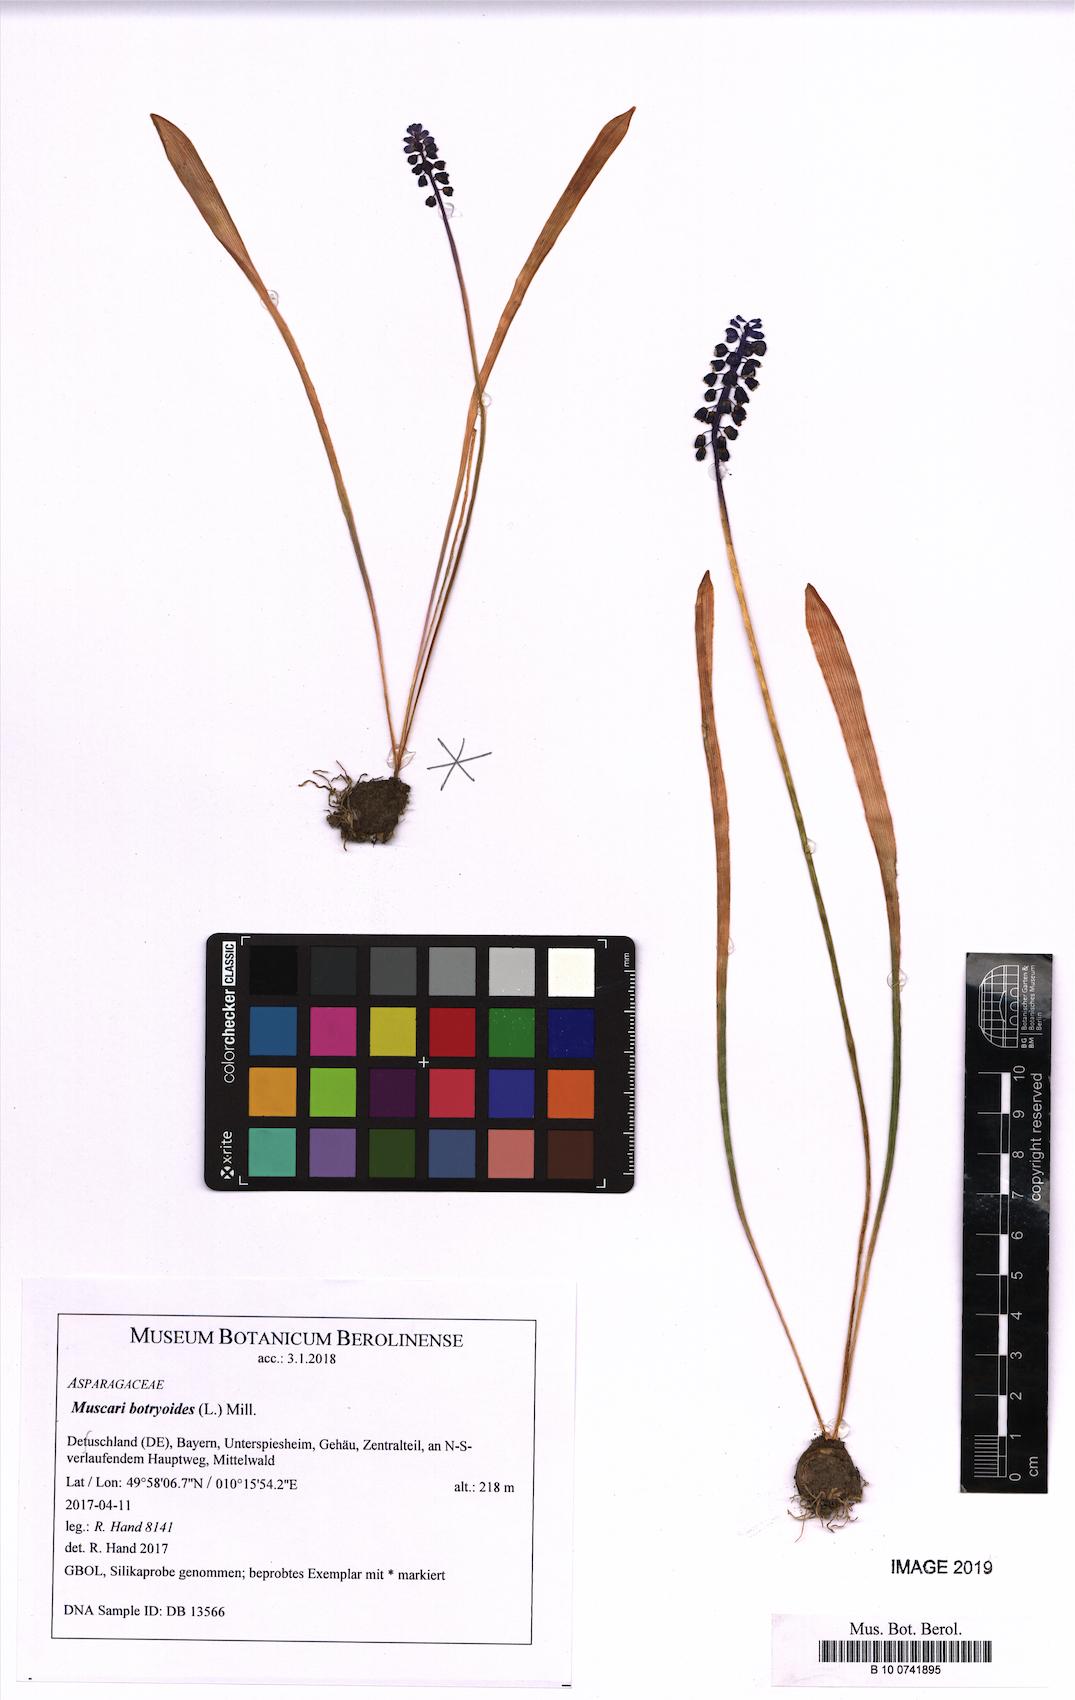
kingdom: Plantae
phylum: Tracheophyta
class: Liliopsida
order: Asparagales
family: Asparagaceae
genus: Muscari
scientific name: Muscari botryoides
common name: Compact grape-hyacinth
